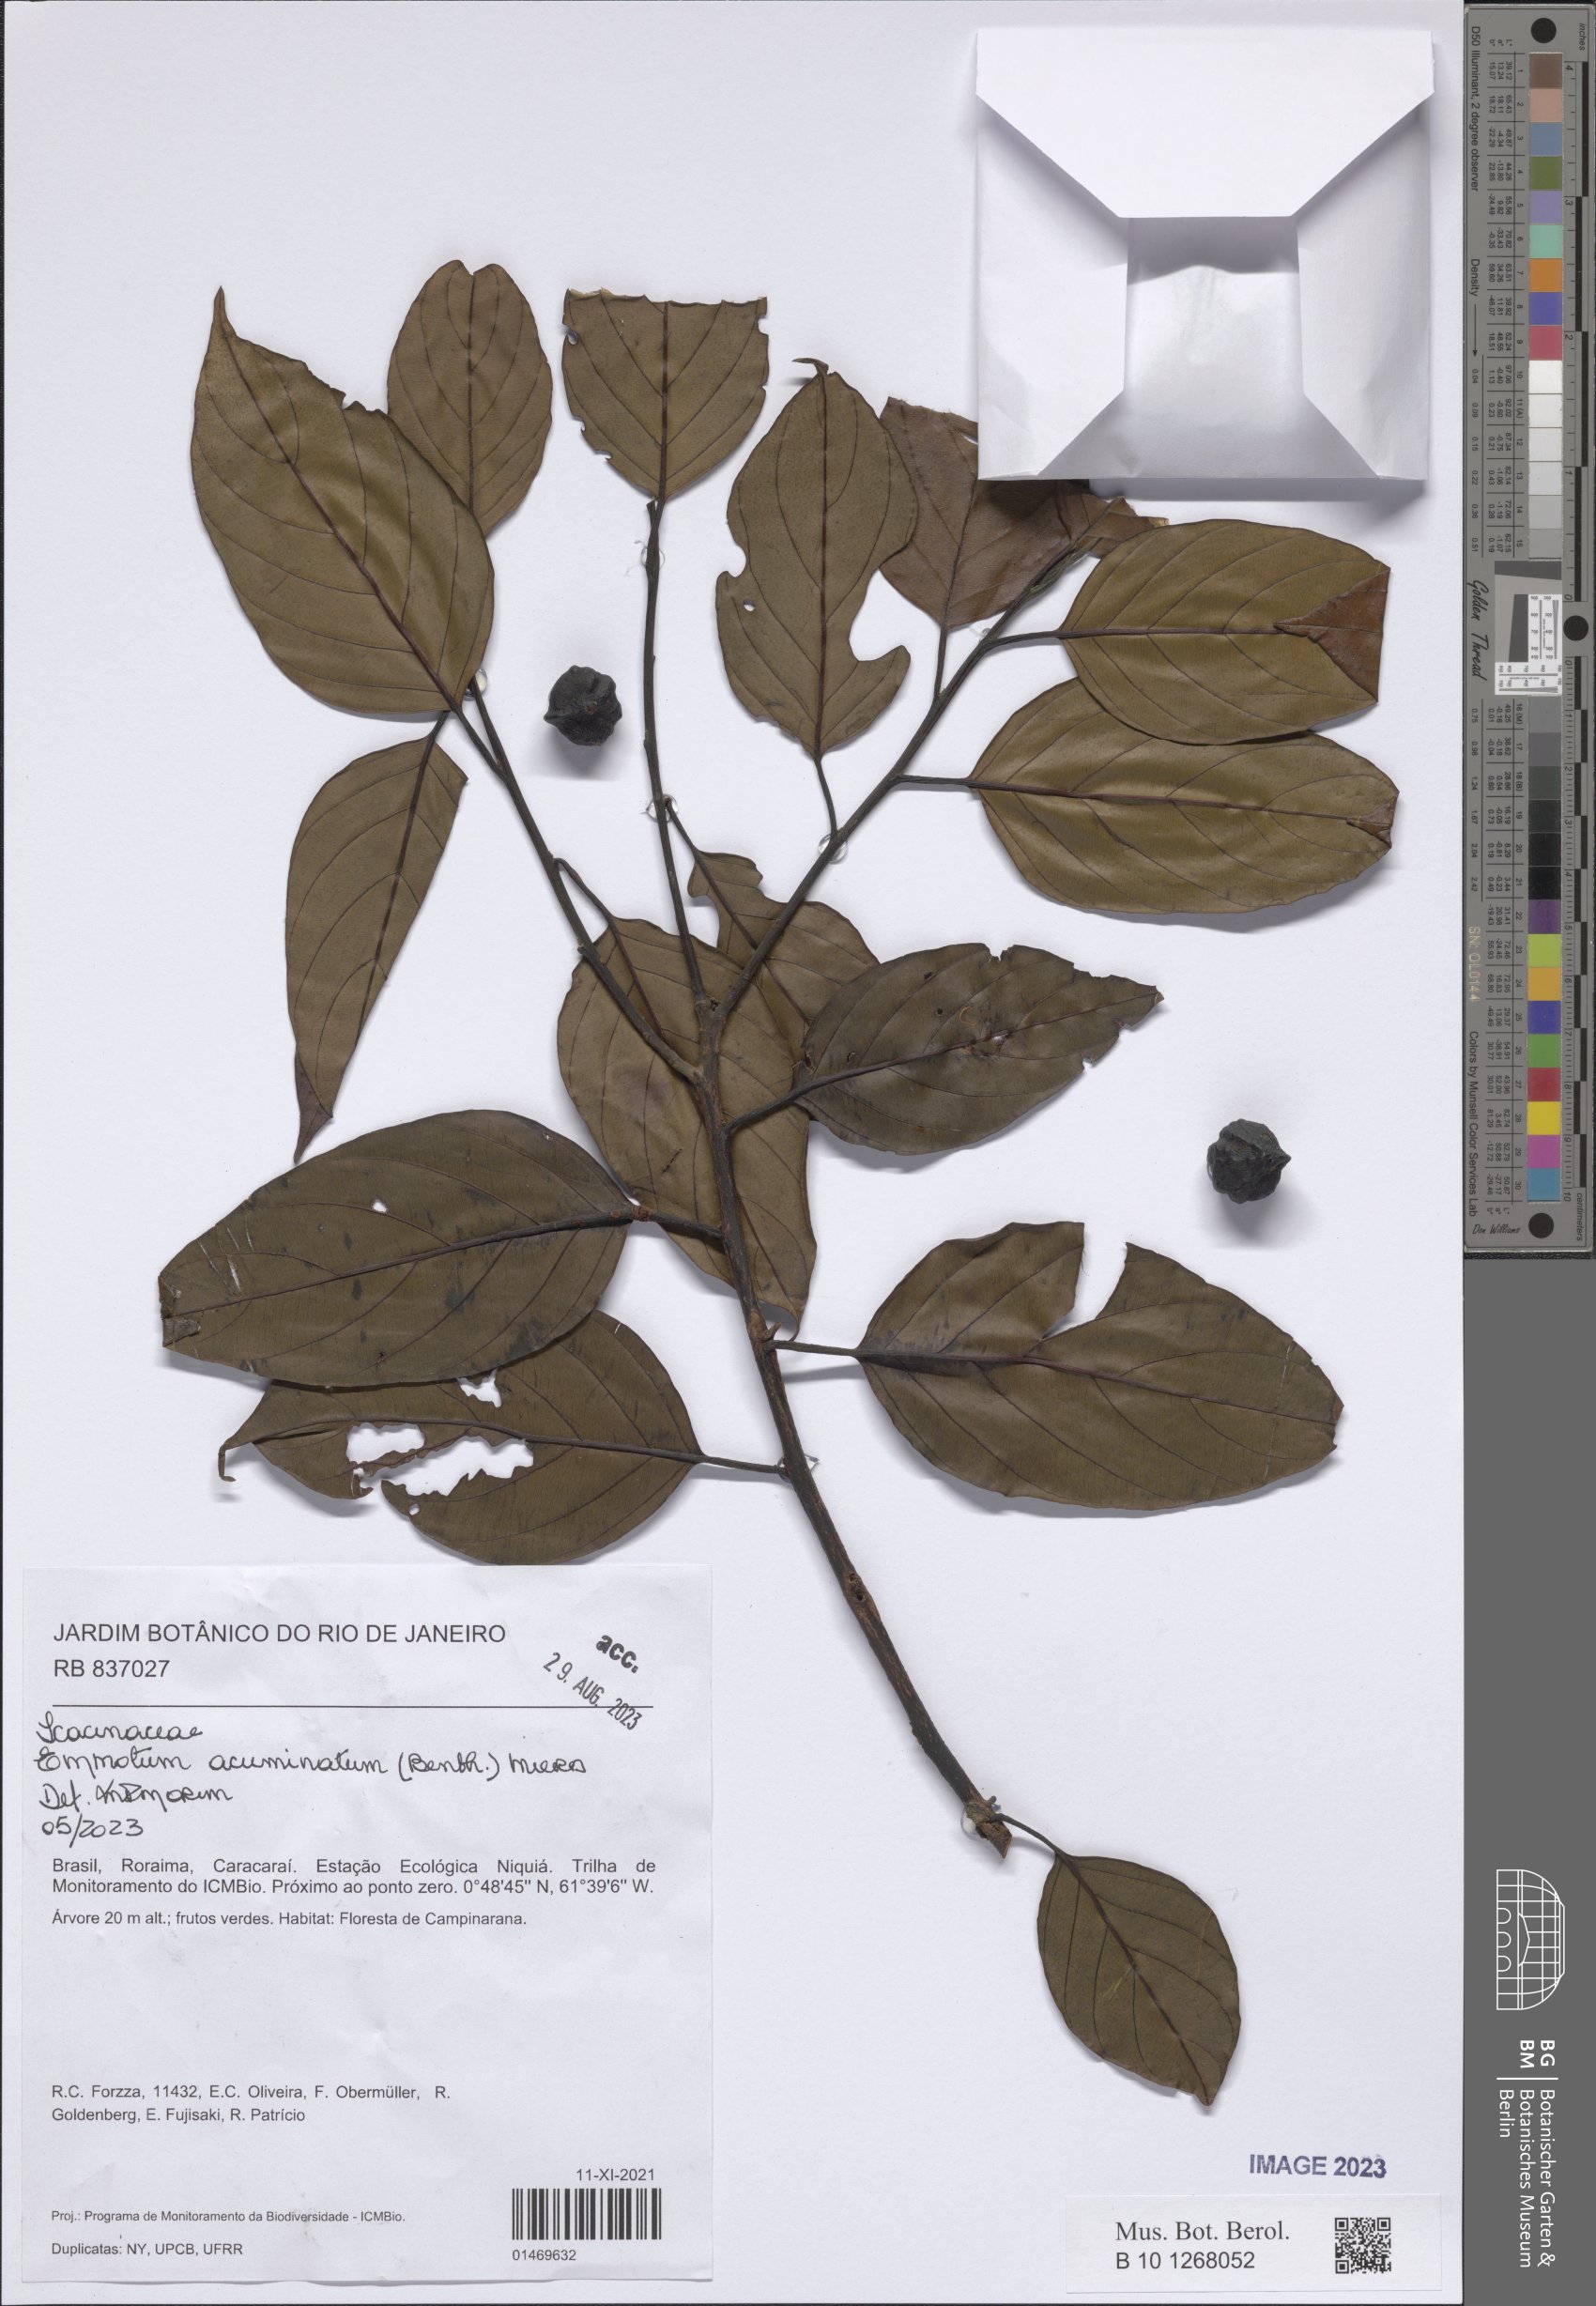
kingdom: Plantae
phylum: Tracheophyta
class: Magnoliopsida
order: Metteniusales
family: Metteniusaceae
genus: Emmotum
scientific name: Emmotum acuminatum
